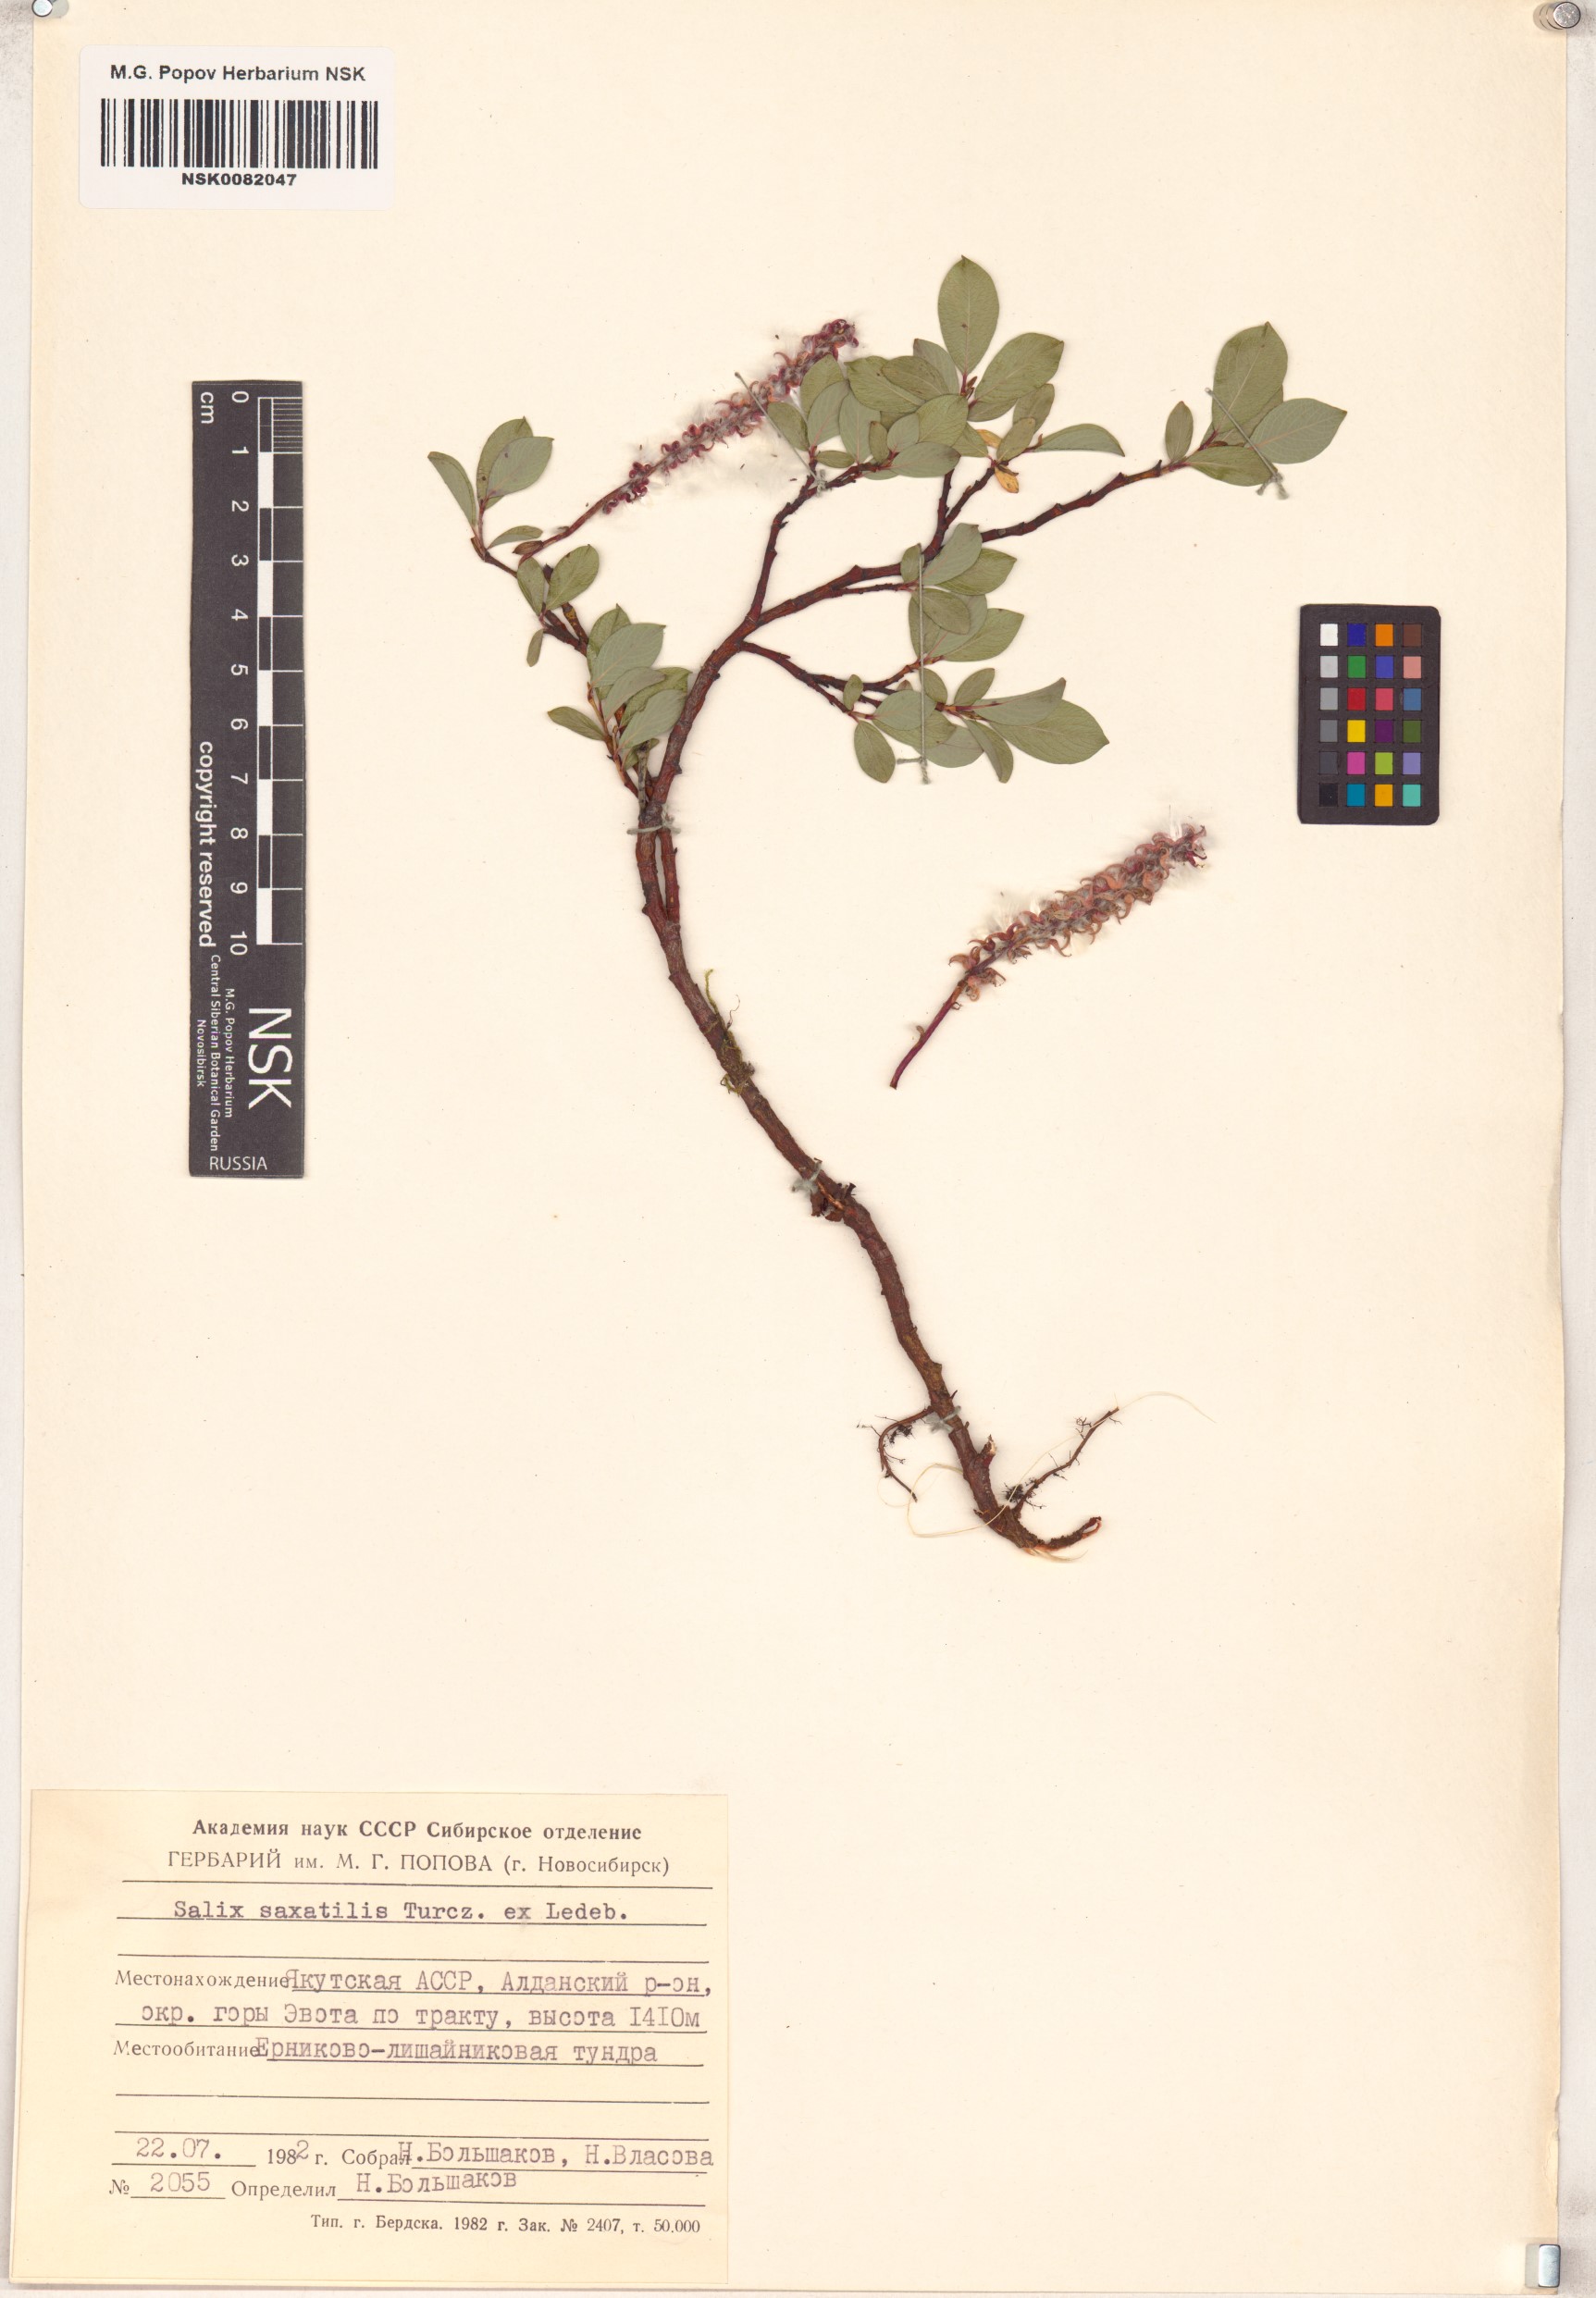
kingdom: Plantae
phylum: Tracheophyta
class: Magnoliopsida
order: Malpighiales
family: Salicaceae
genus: Salix
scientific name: Salix saxatilis
